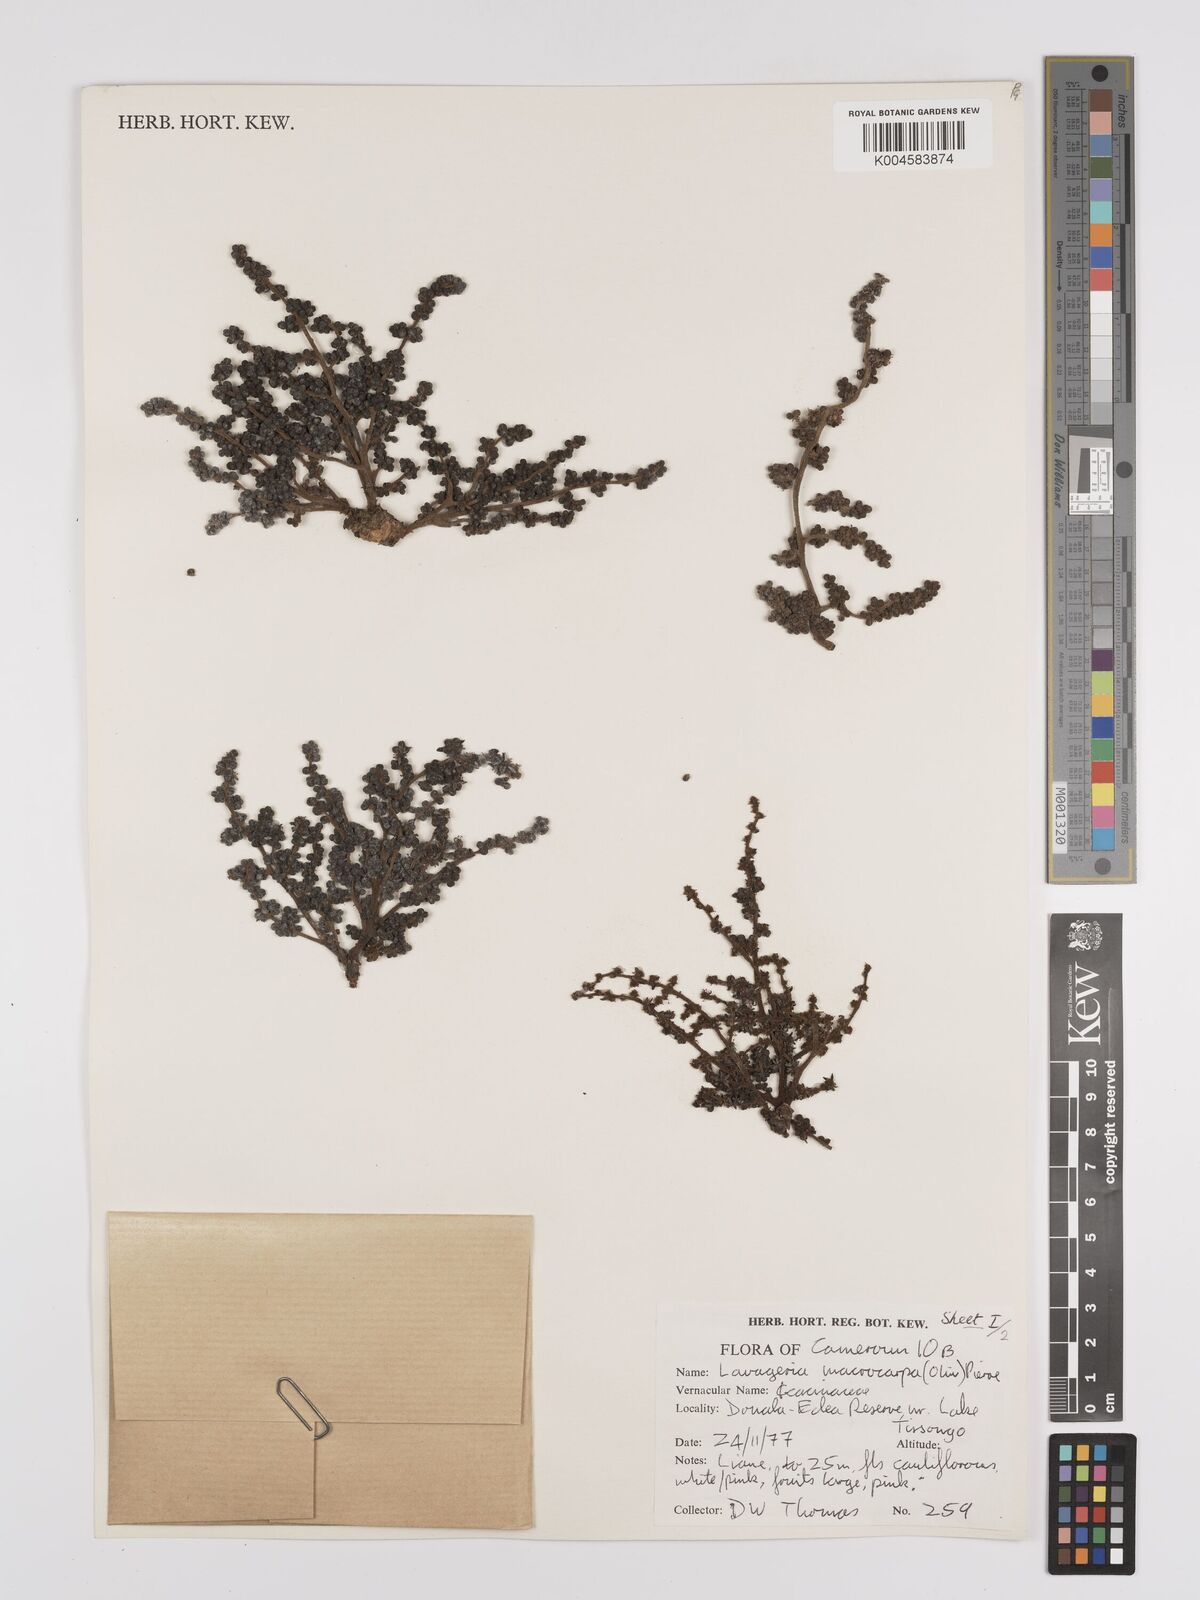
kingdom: Plantae
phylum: Tracheophyta
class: Magnoliopsida
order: Icacinales
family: Icacinaceae
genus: Lavigeria
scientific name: Lavigeria macrocarpa
